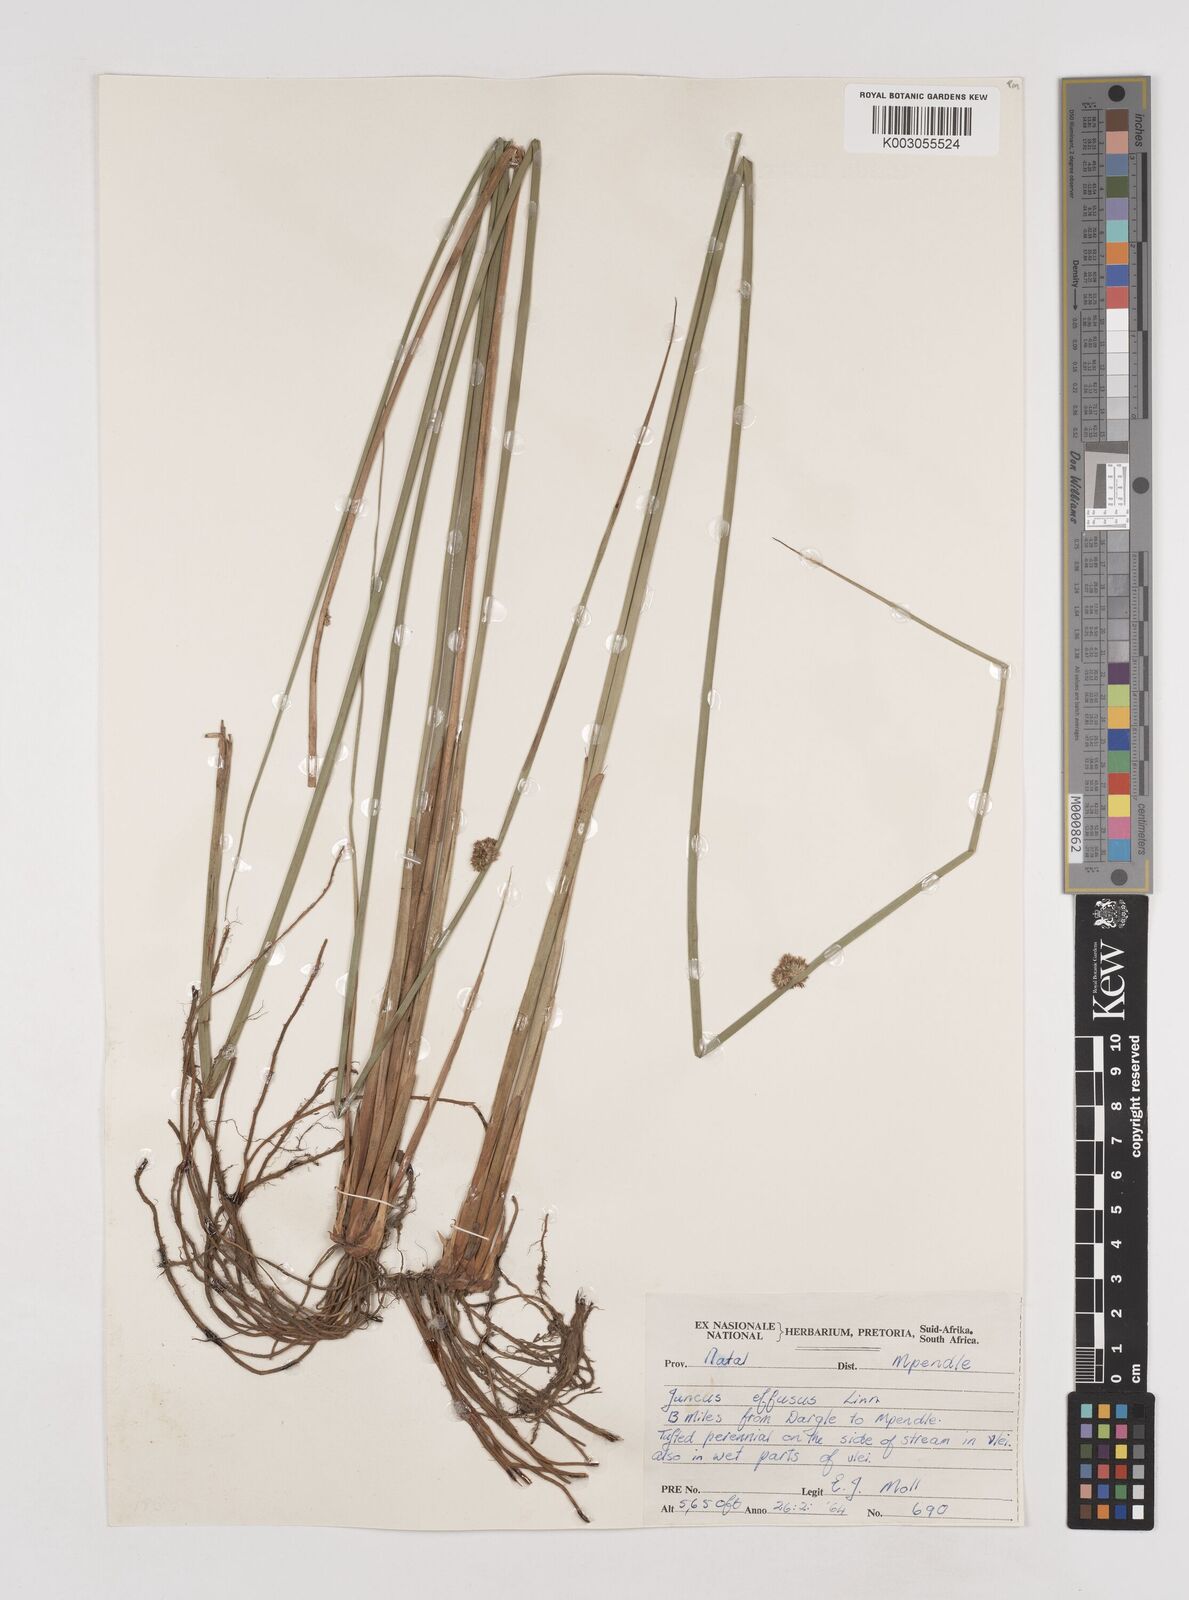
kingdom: Plantae
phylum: Tracheophyta
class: Liliopsida
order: Poales
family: Juncaceae
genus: Juncus
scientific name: Juncus effusus
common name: Soft rush
